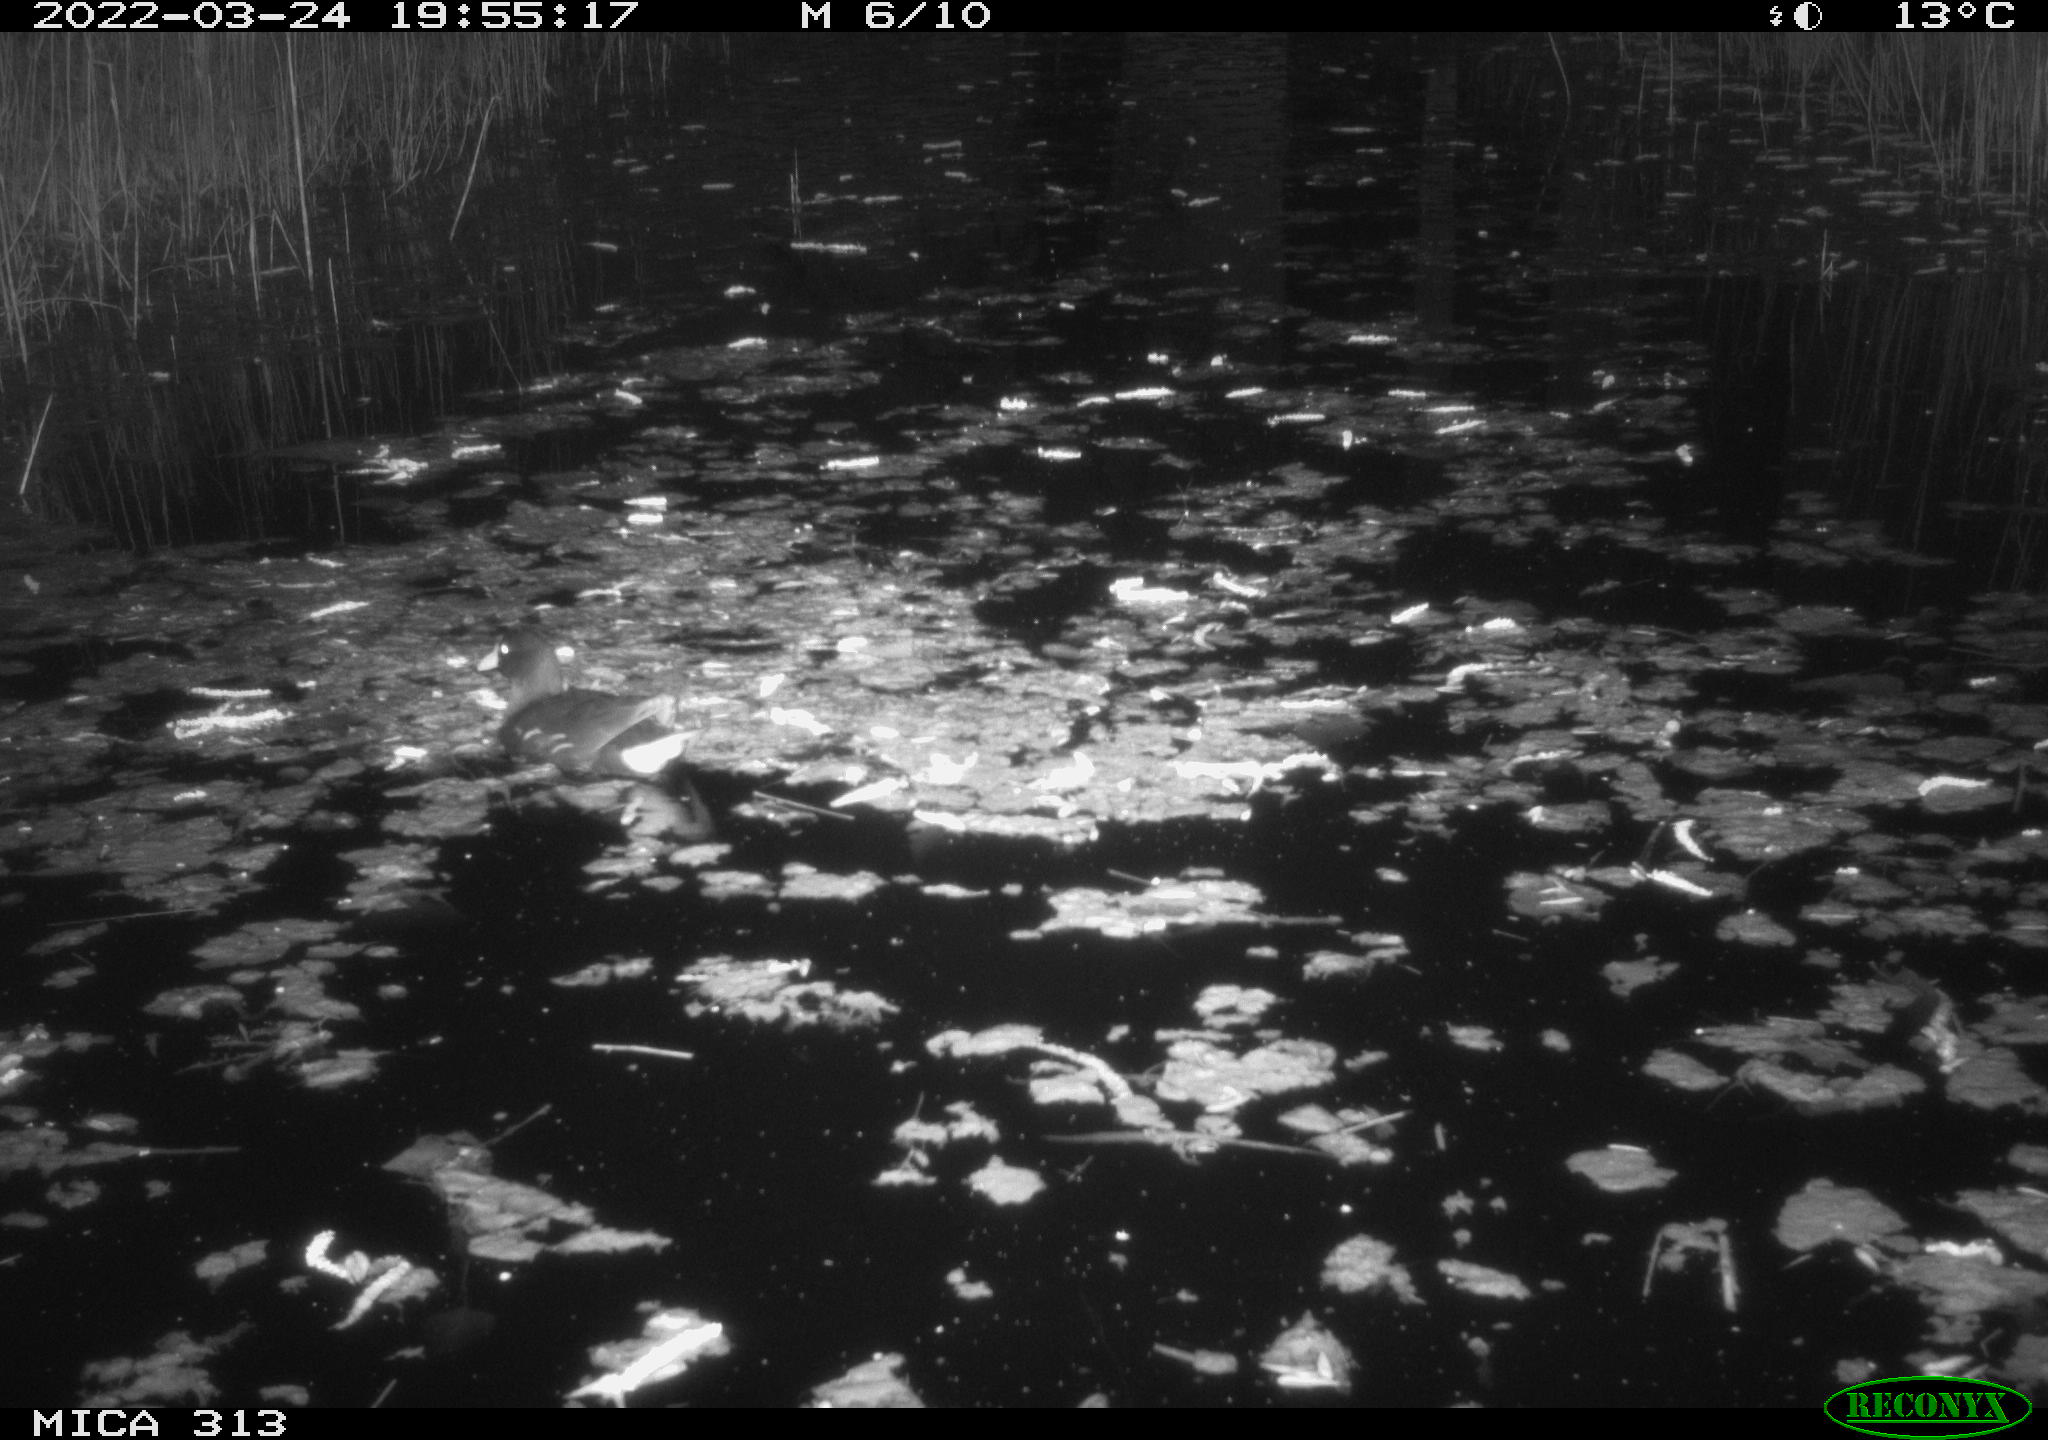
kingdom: Animalia
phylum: Chordata
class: Aves
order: Anseriformes
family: Anatidae
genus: Anas
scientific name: Anas platyrhynchos
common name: Mallard
